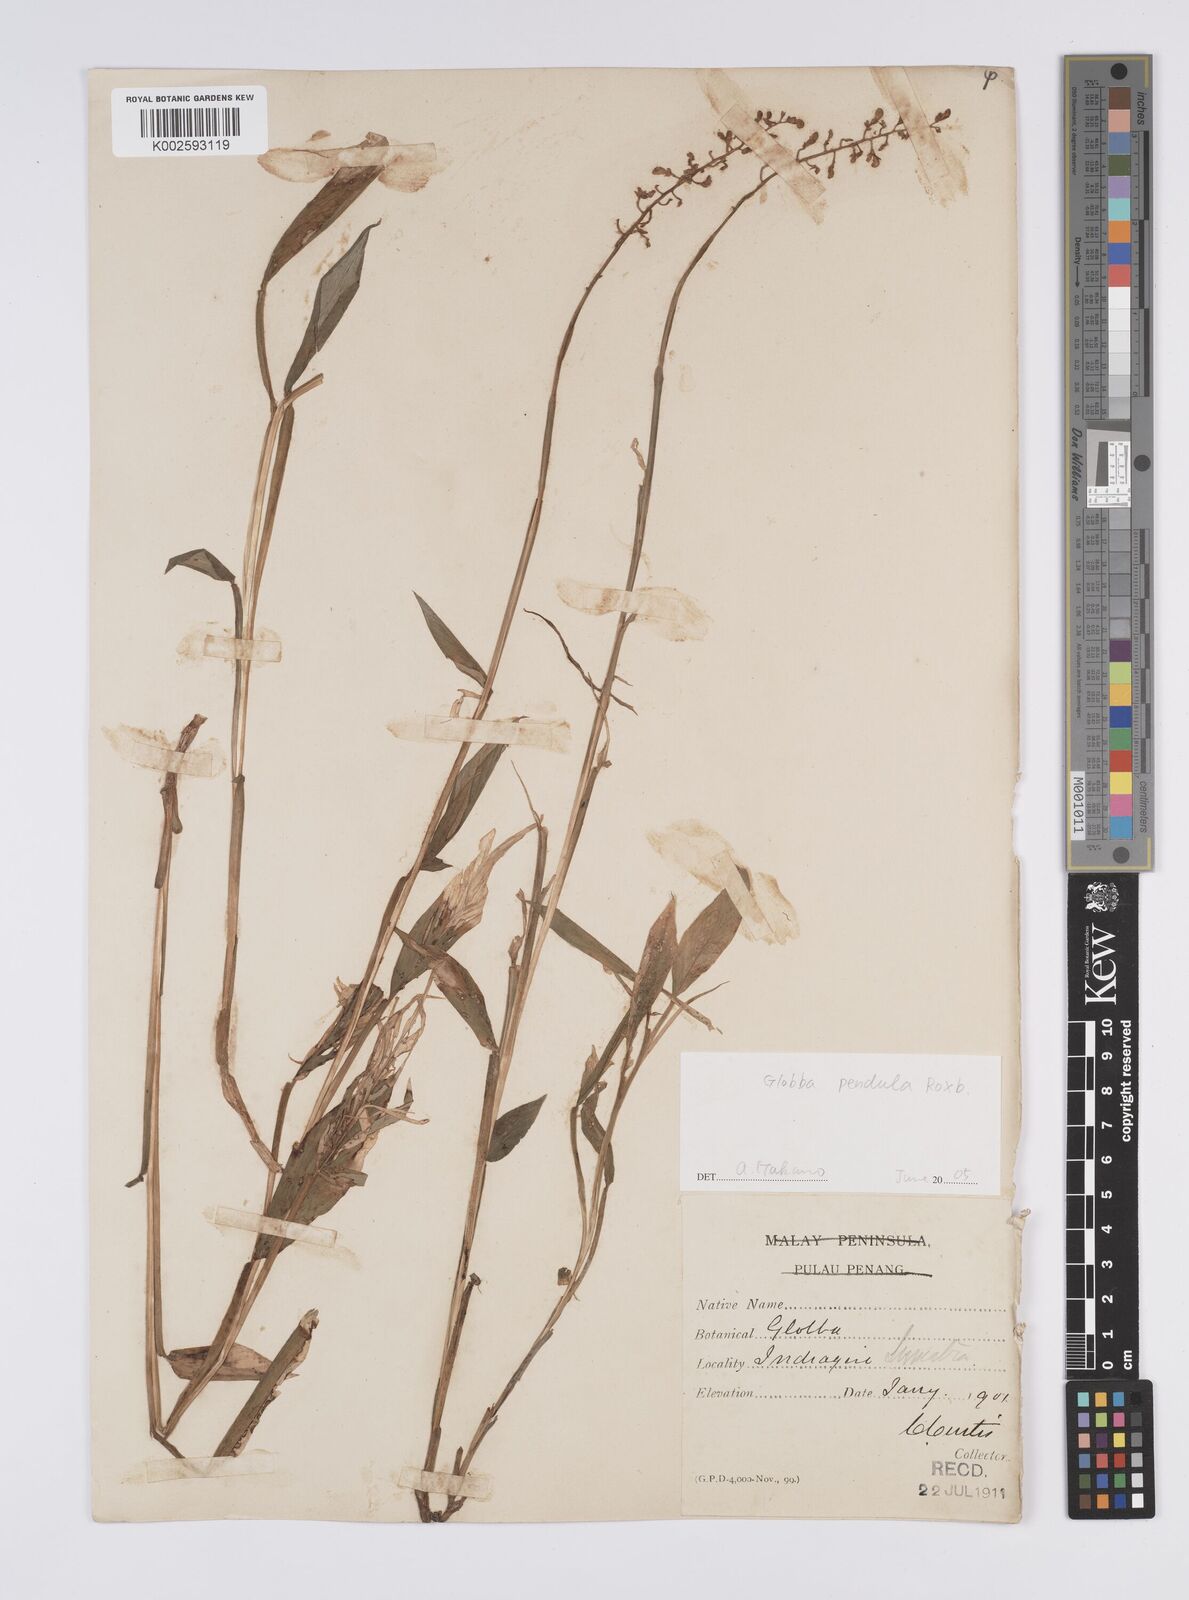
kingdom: Plantae
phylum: Tracheophyta
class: Liliopsida
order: Zingiberales
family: Zingiberaceae
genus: Globba
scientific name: Globba pendula
